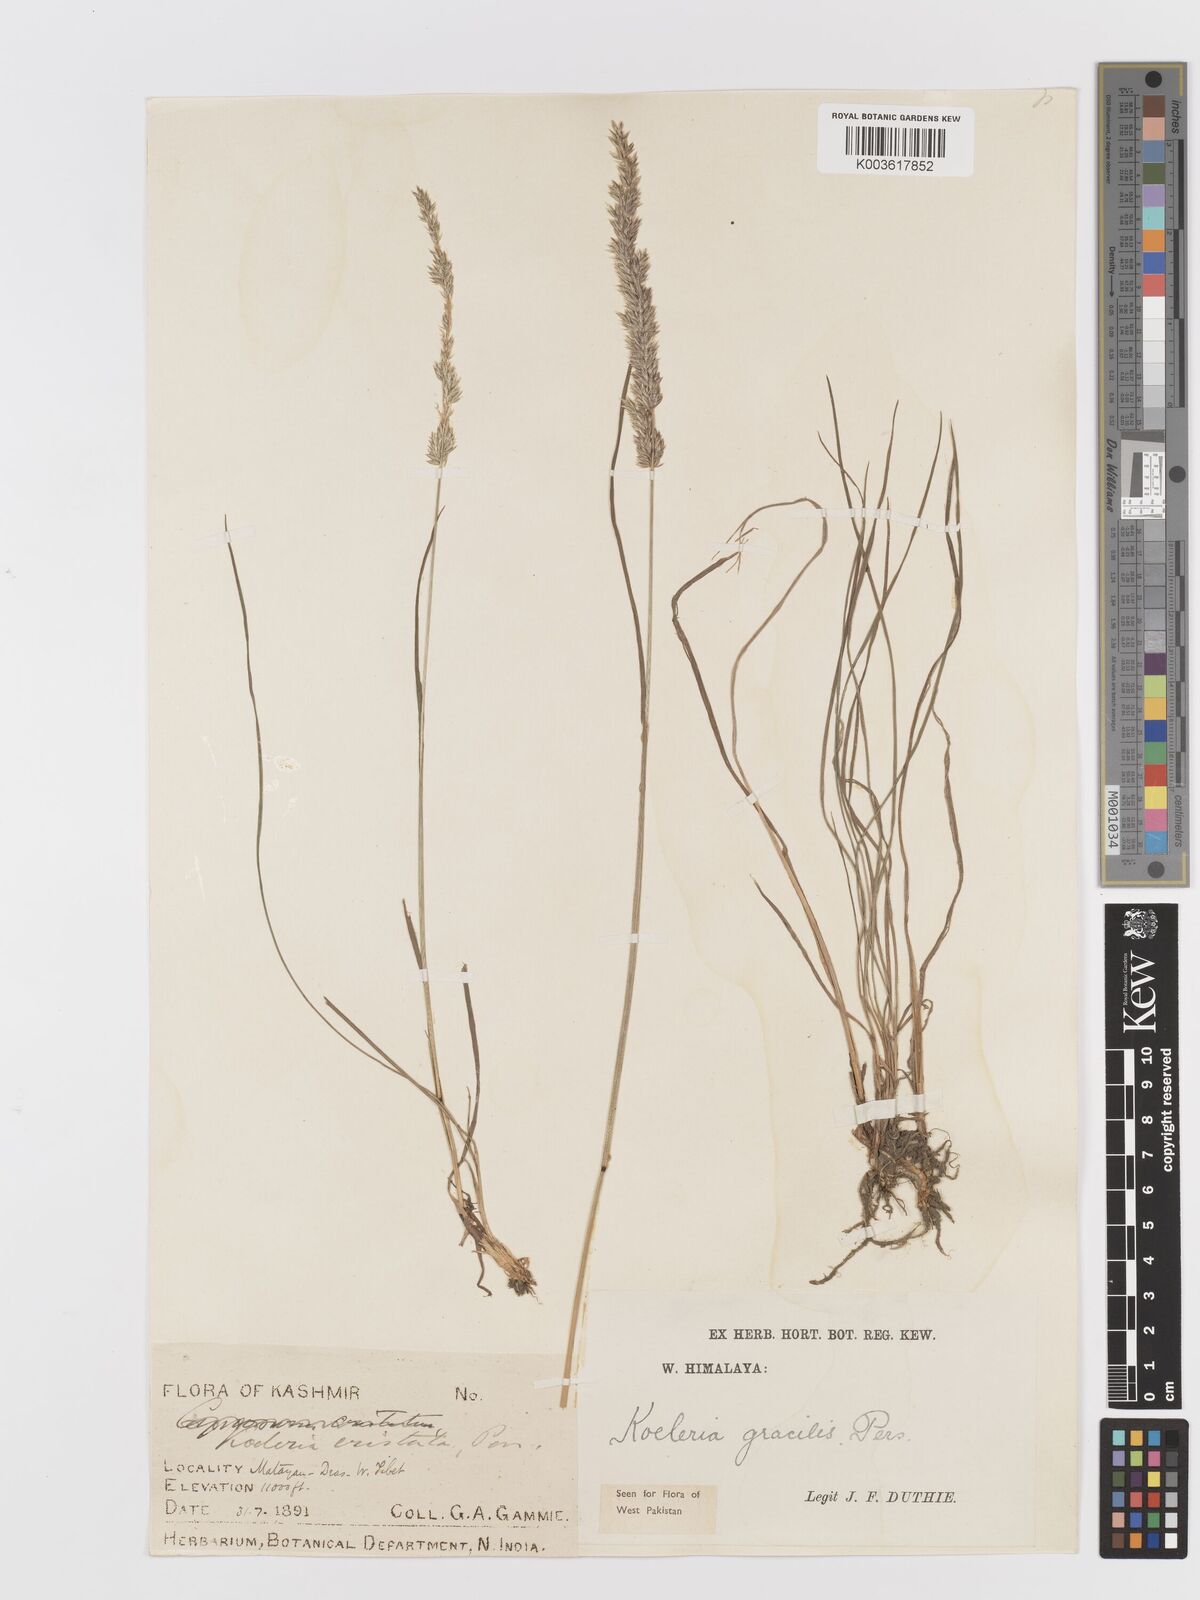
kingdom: Plantae
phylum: Tracheophyta
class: Liliopsida
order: Poales
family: Poaceae
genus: Koeleria
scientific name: Koeleria macrantha
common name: Crested hair-grass
